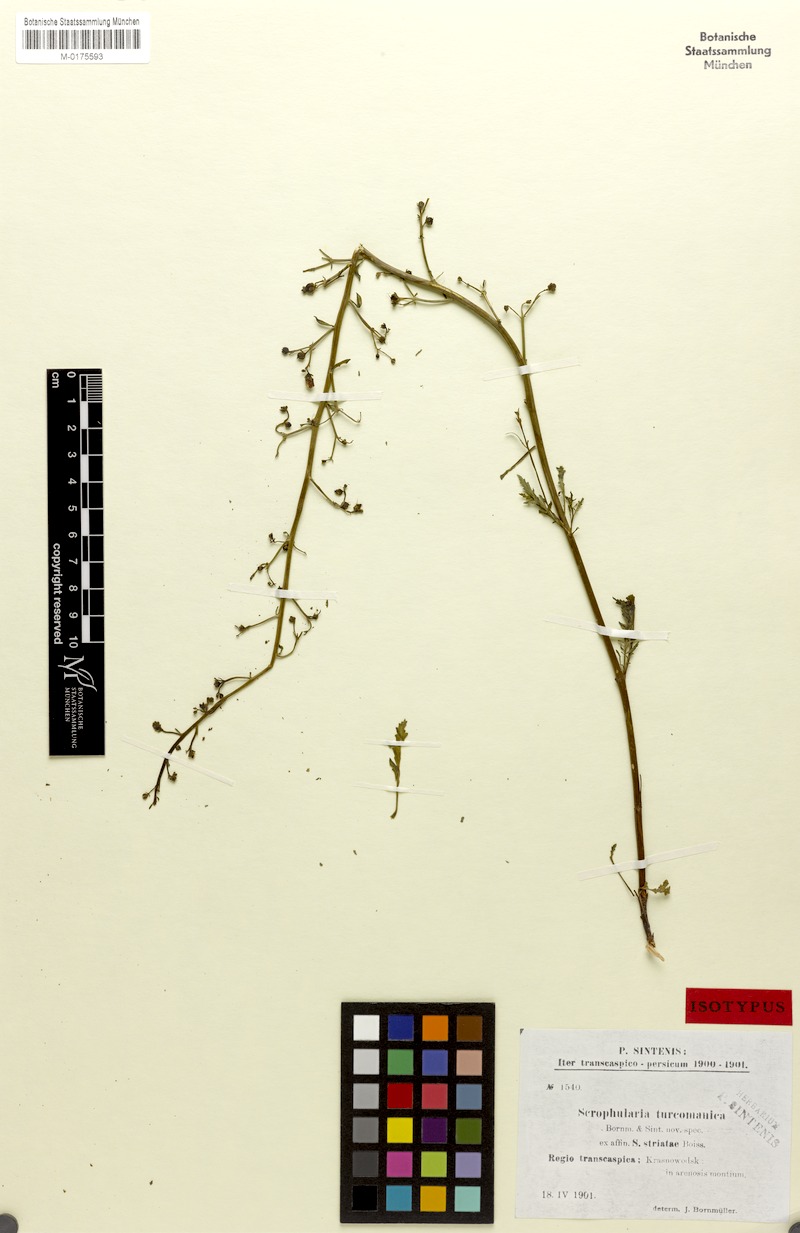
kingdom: Plantae
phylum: Tracheophyta
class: Magnoliopsida
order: Lamiales
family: Scrophulariaceae
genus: Scrophularia
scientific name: Scrophularia scoparia
